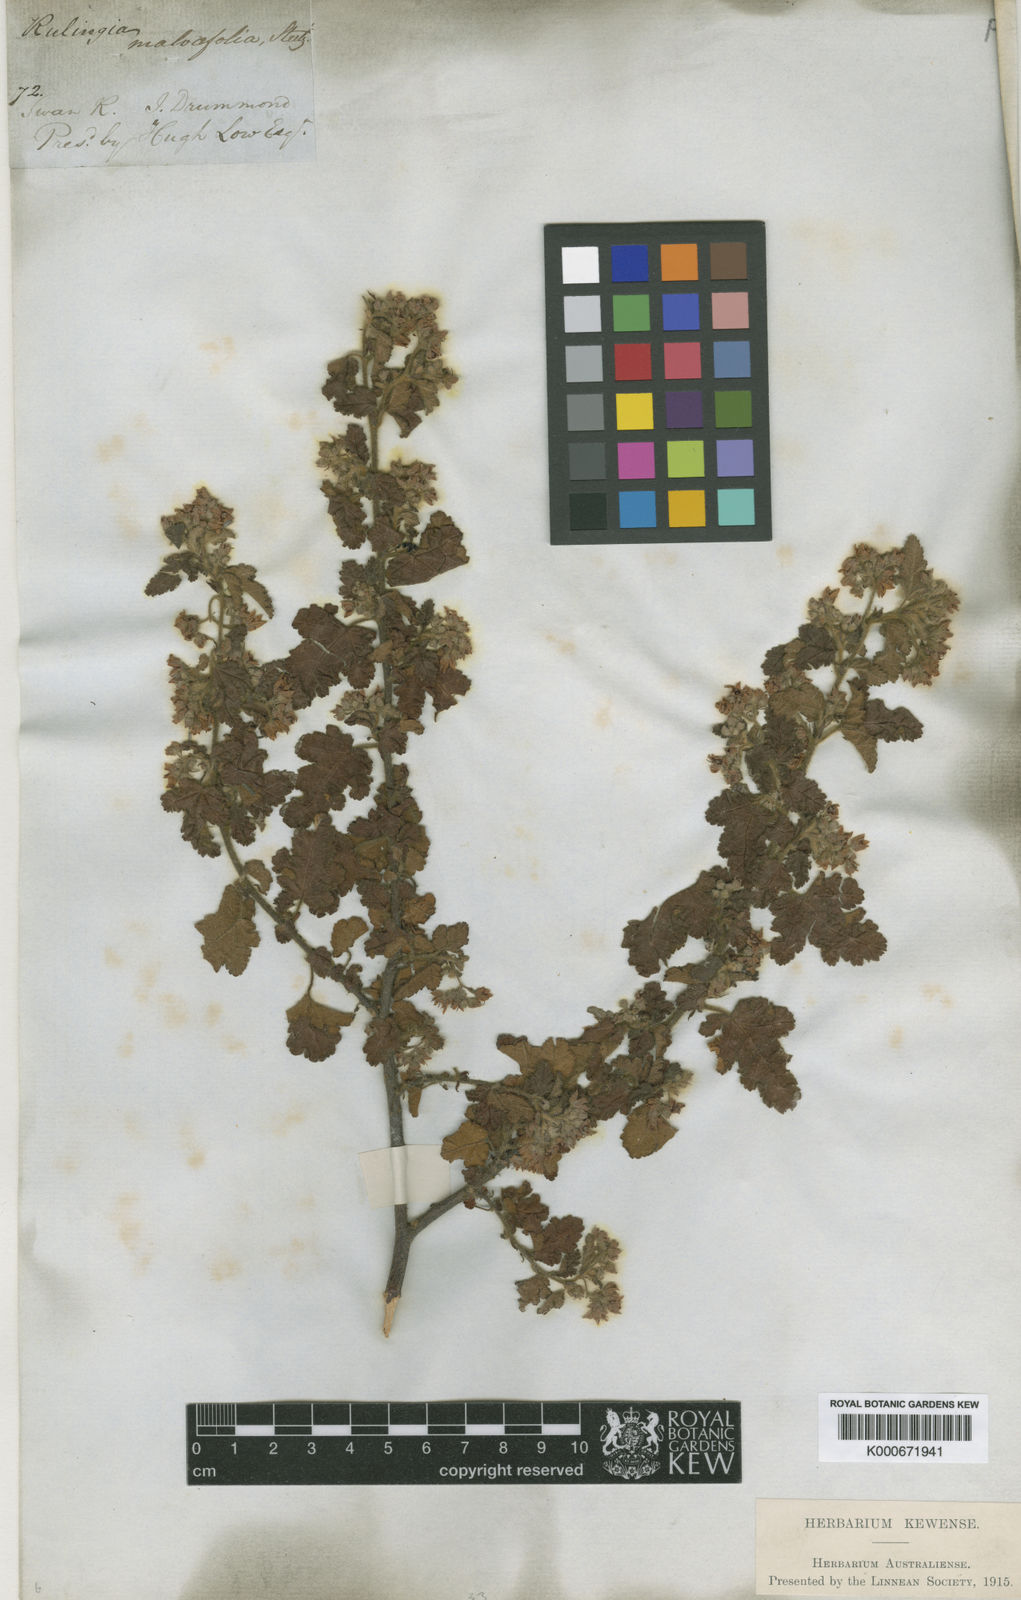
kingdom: Plantae
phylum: Tracheophyta
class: Magnoliopsida
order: Malvales
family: Malvaceae
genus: Commersonia
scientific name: Commersonia corniculata
